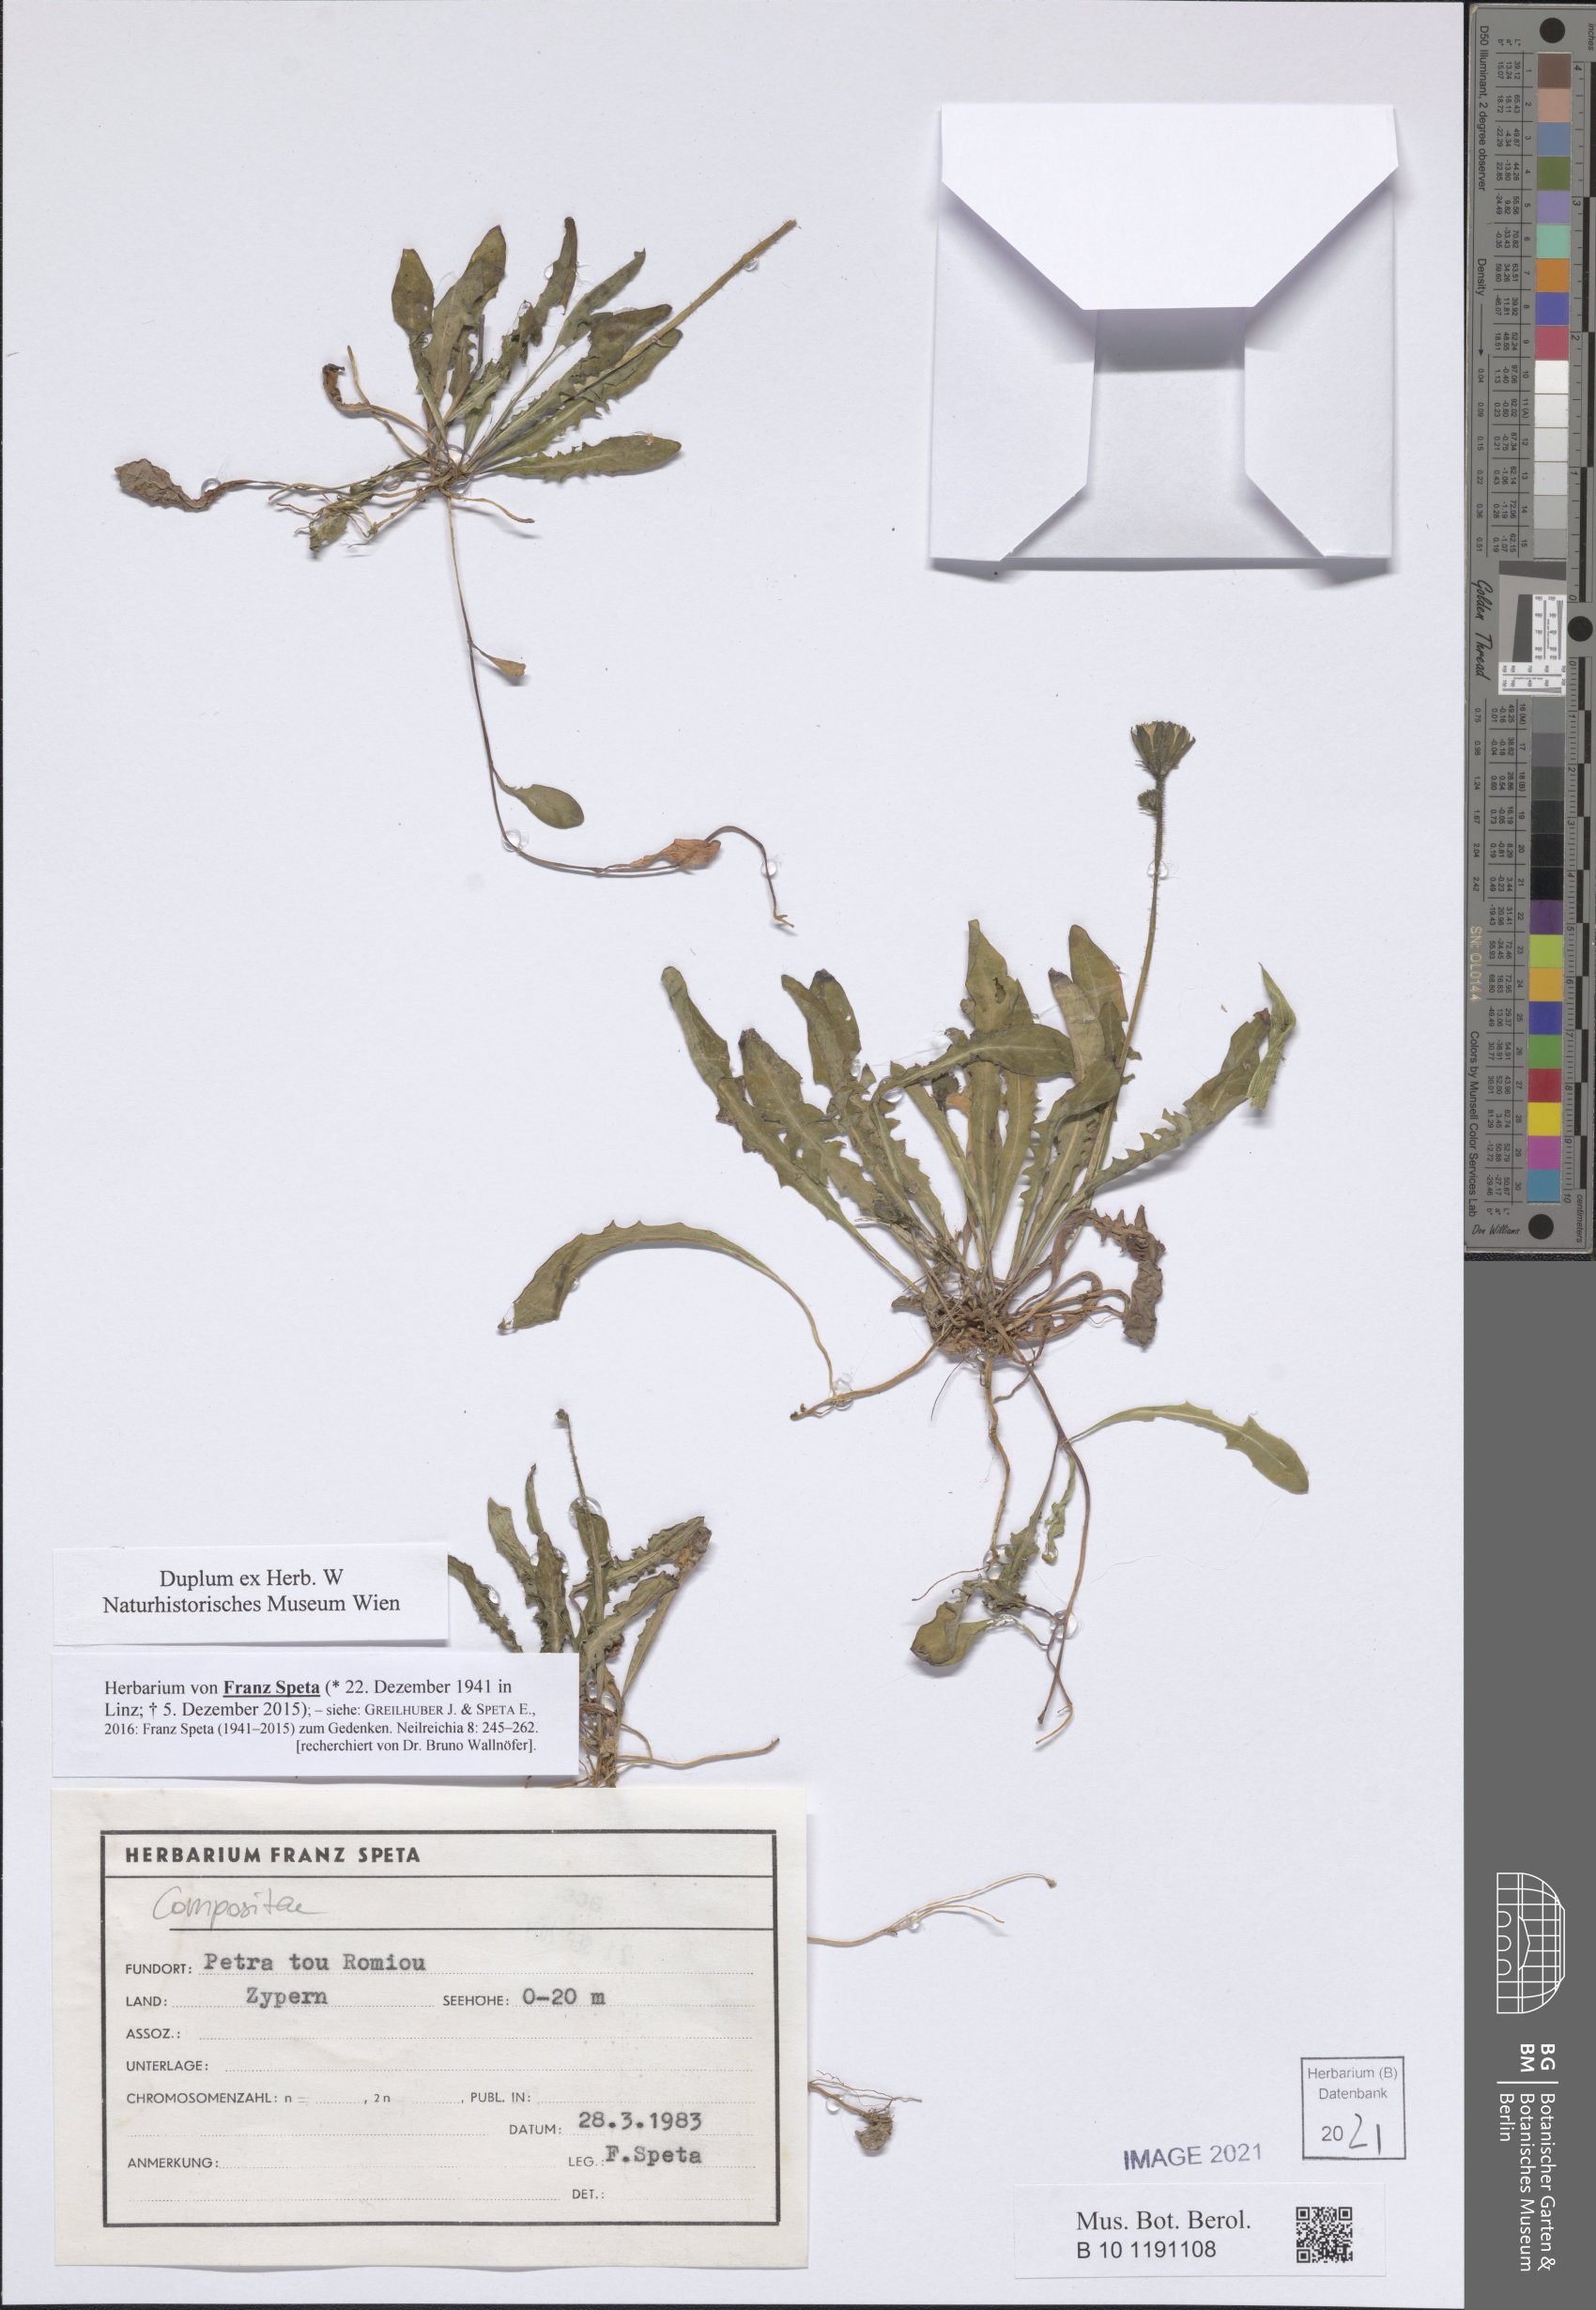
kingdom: Plantae
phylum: Tracheophyta
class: Magnoliopsida
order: Asterales
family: Asteraceae
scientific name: Asteraceae
